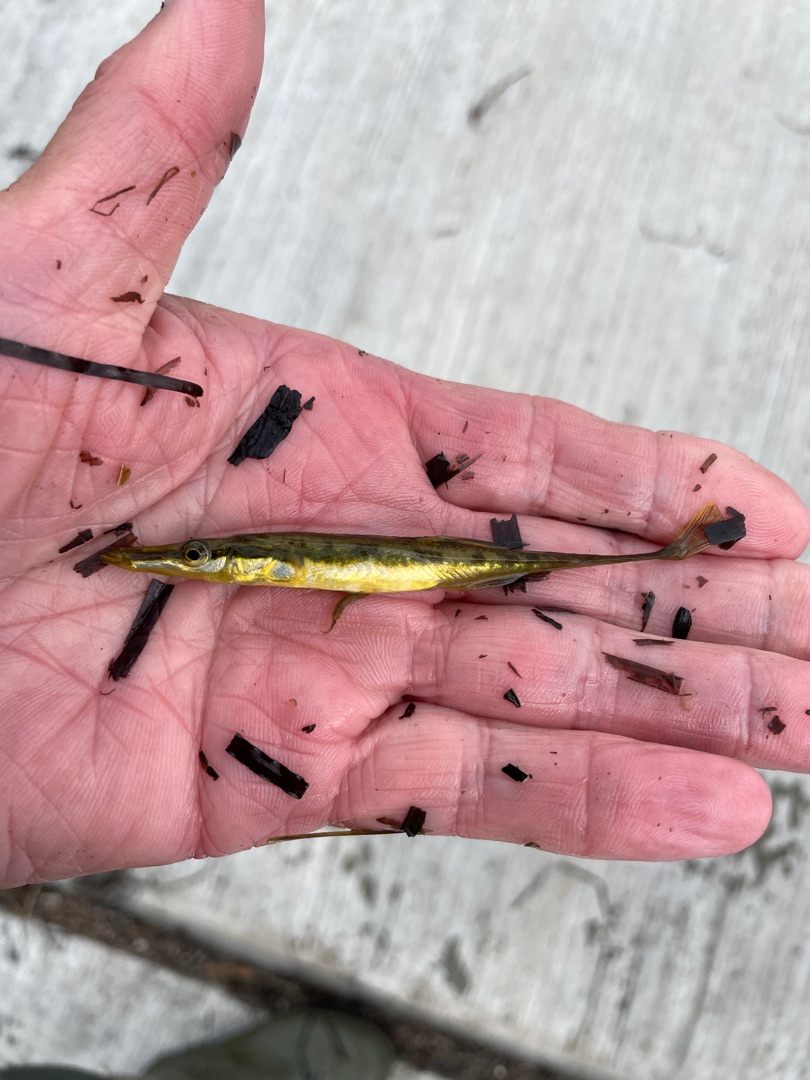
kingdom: Animalia
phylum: Chordata
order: Gasterosteiformes
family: Gasterosteidae
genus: Spinachia
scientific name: Spinachia spinachia
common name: Tangsnarre
